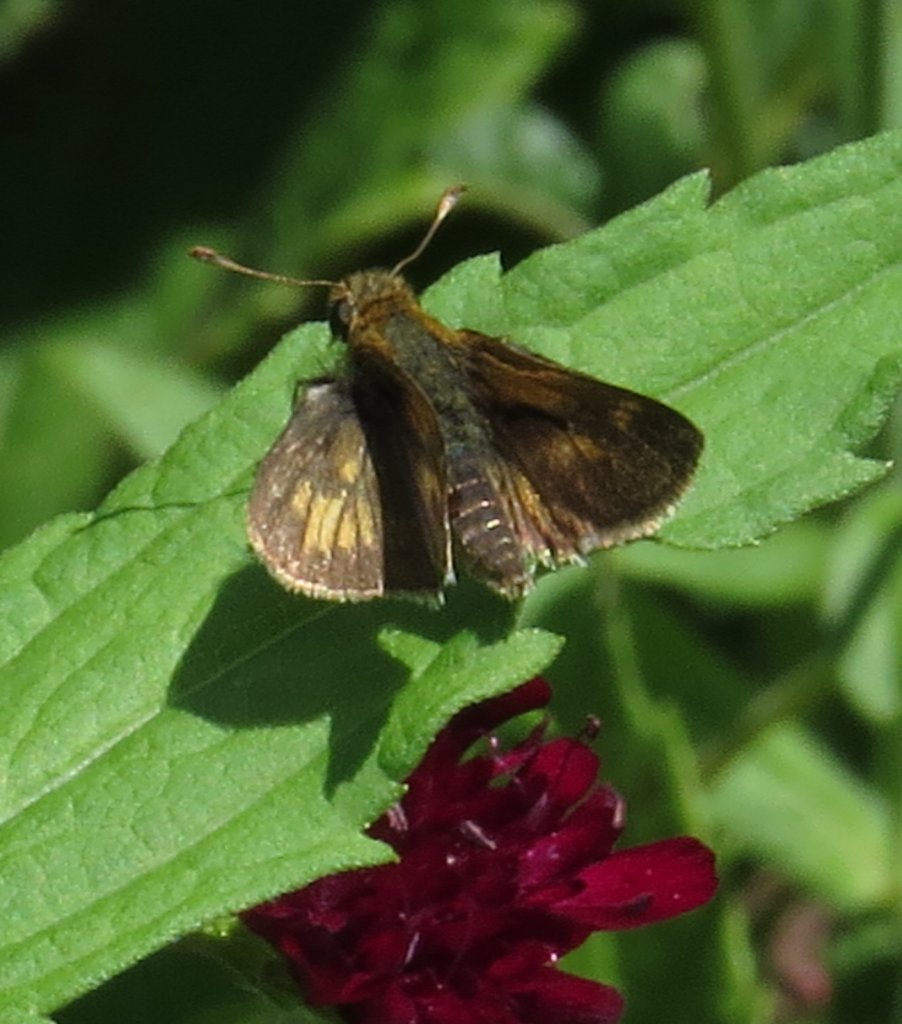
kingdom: Animalia
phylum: Arthropoda
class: Insecta
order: Lepidoptera
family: Hesperiidae
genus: Polites
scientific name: Polites coras
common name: Peck's Skipper
